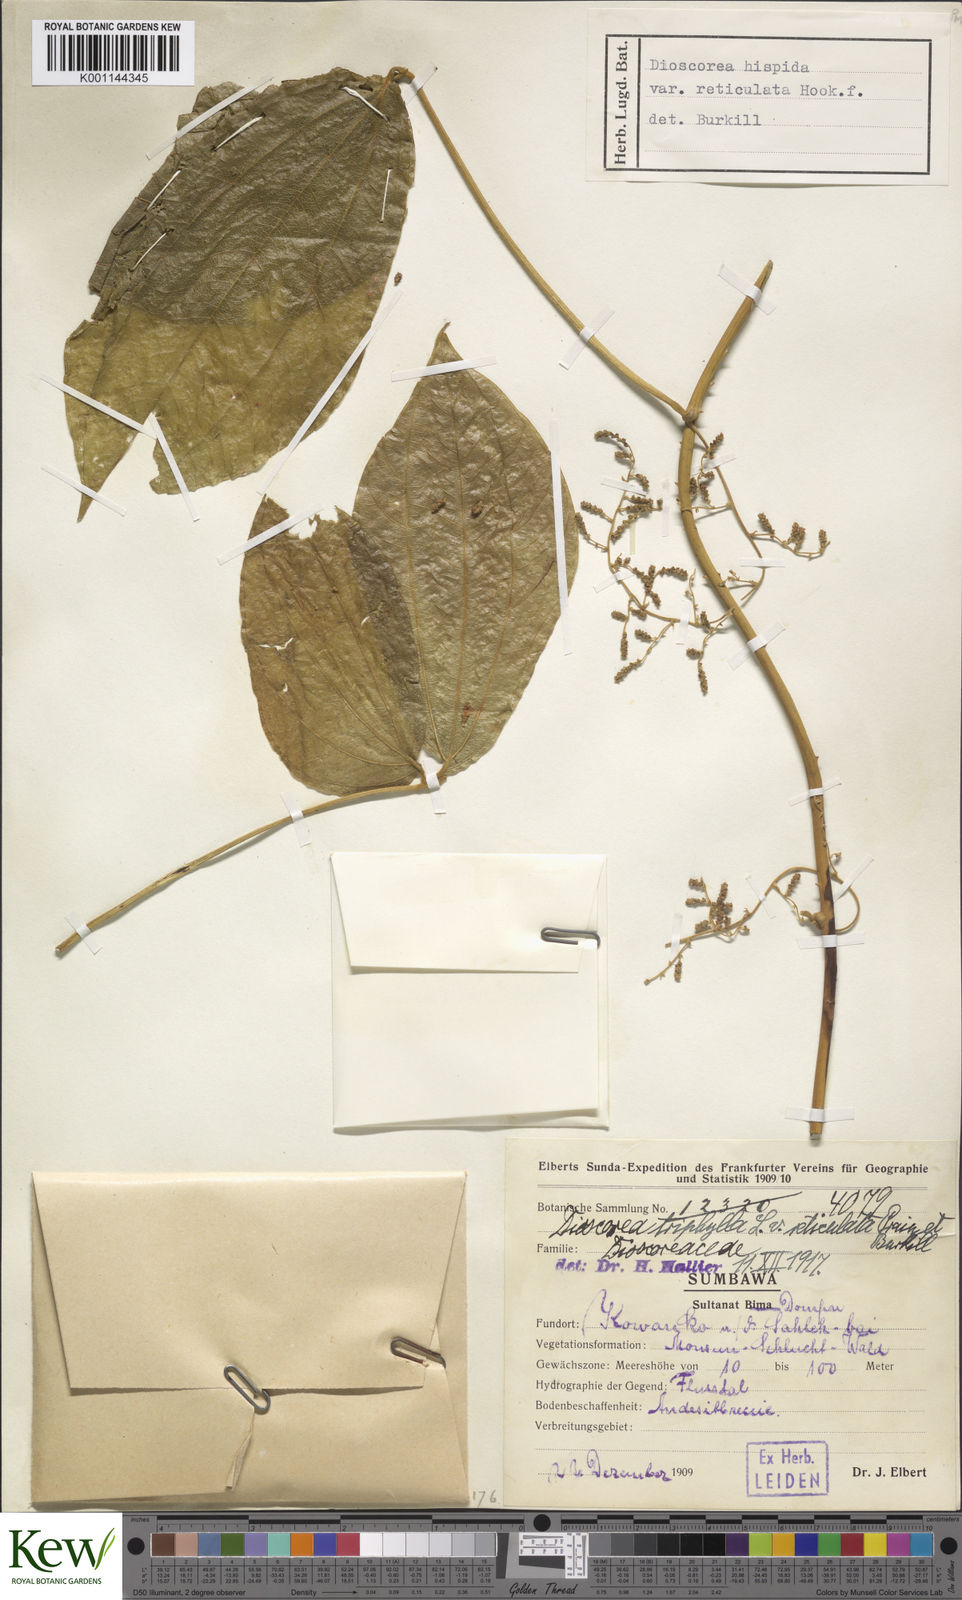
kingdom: Plantae
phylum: Tracheophyta
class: Liliopsida
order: Dioscoreales
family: Dioscoreaceae
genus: Dioscorea
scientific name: Dioscorea hispida
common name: Asiatic bitter yam
